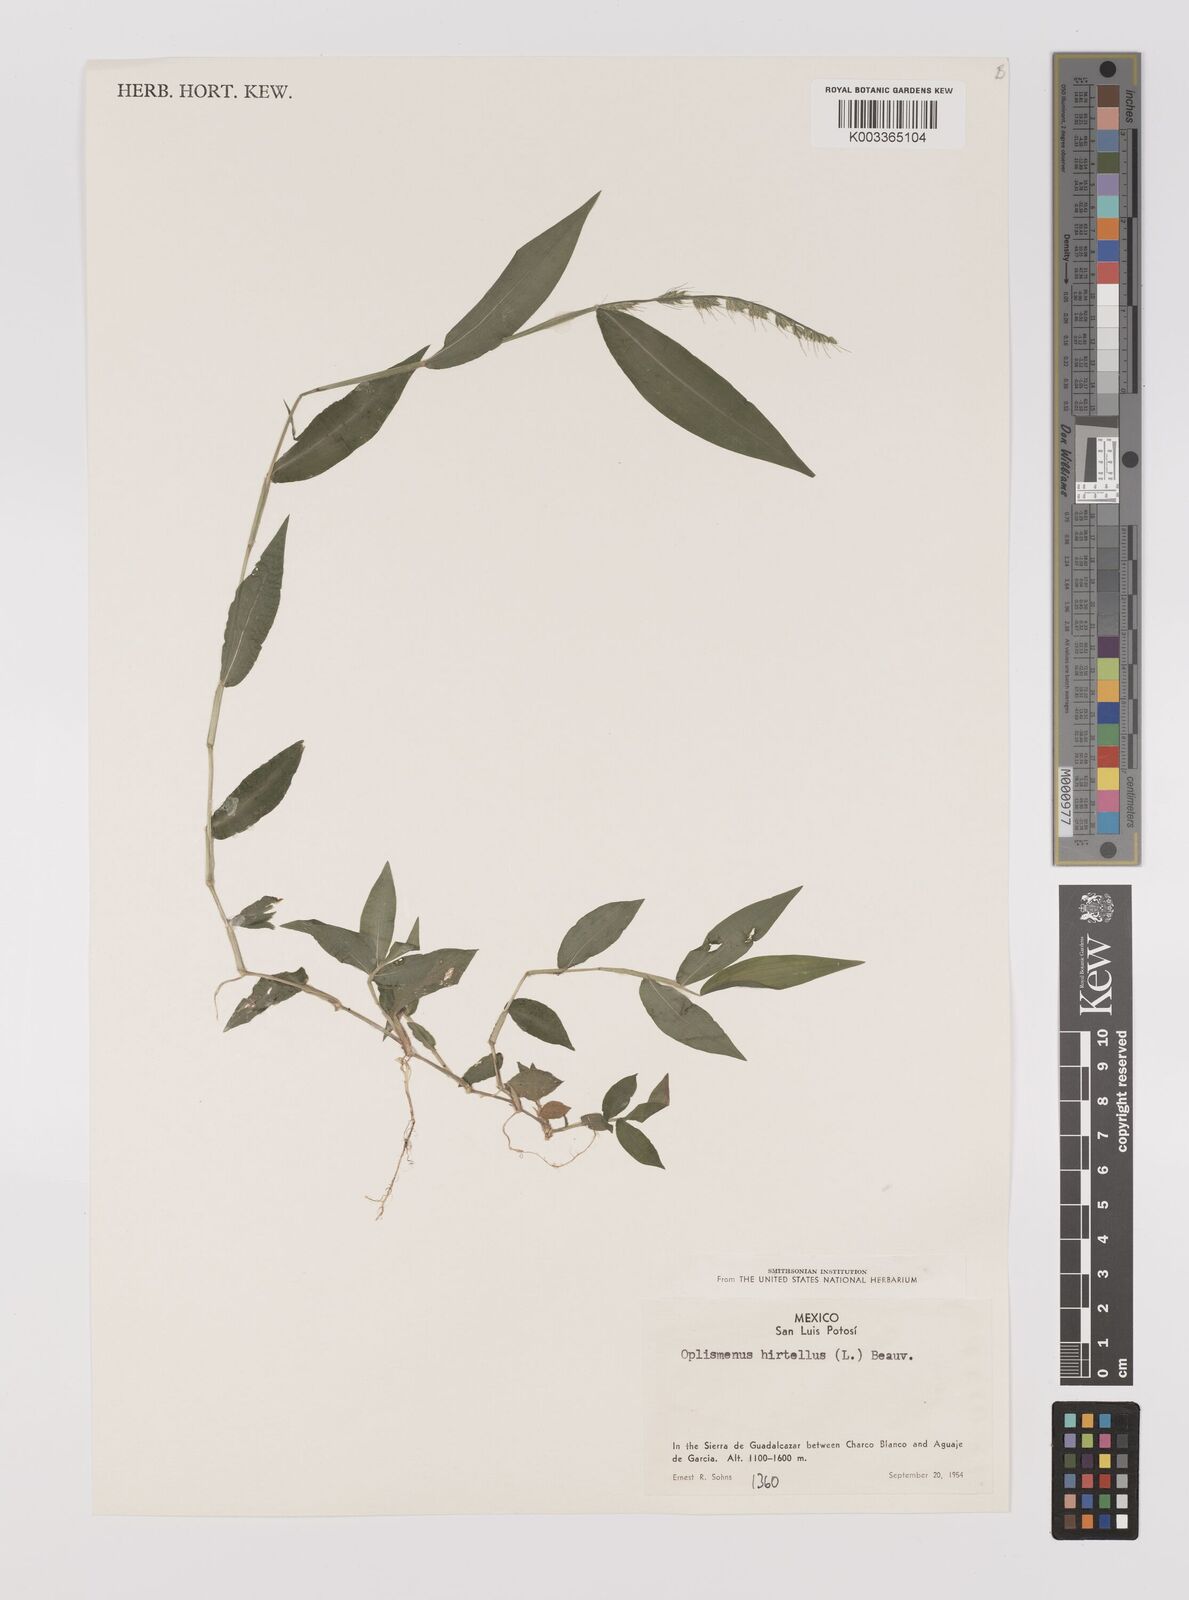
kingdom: Plantae
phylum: Tracheophyta
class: Liliopsida
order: Poales
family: Poaceae
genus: Oplismenus
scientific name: Oplismenus hirtellus
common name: Basketgrass
